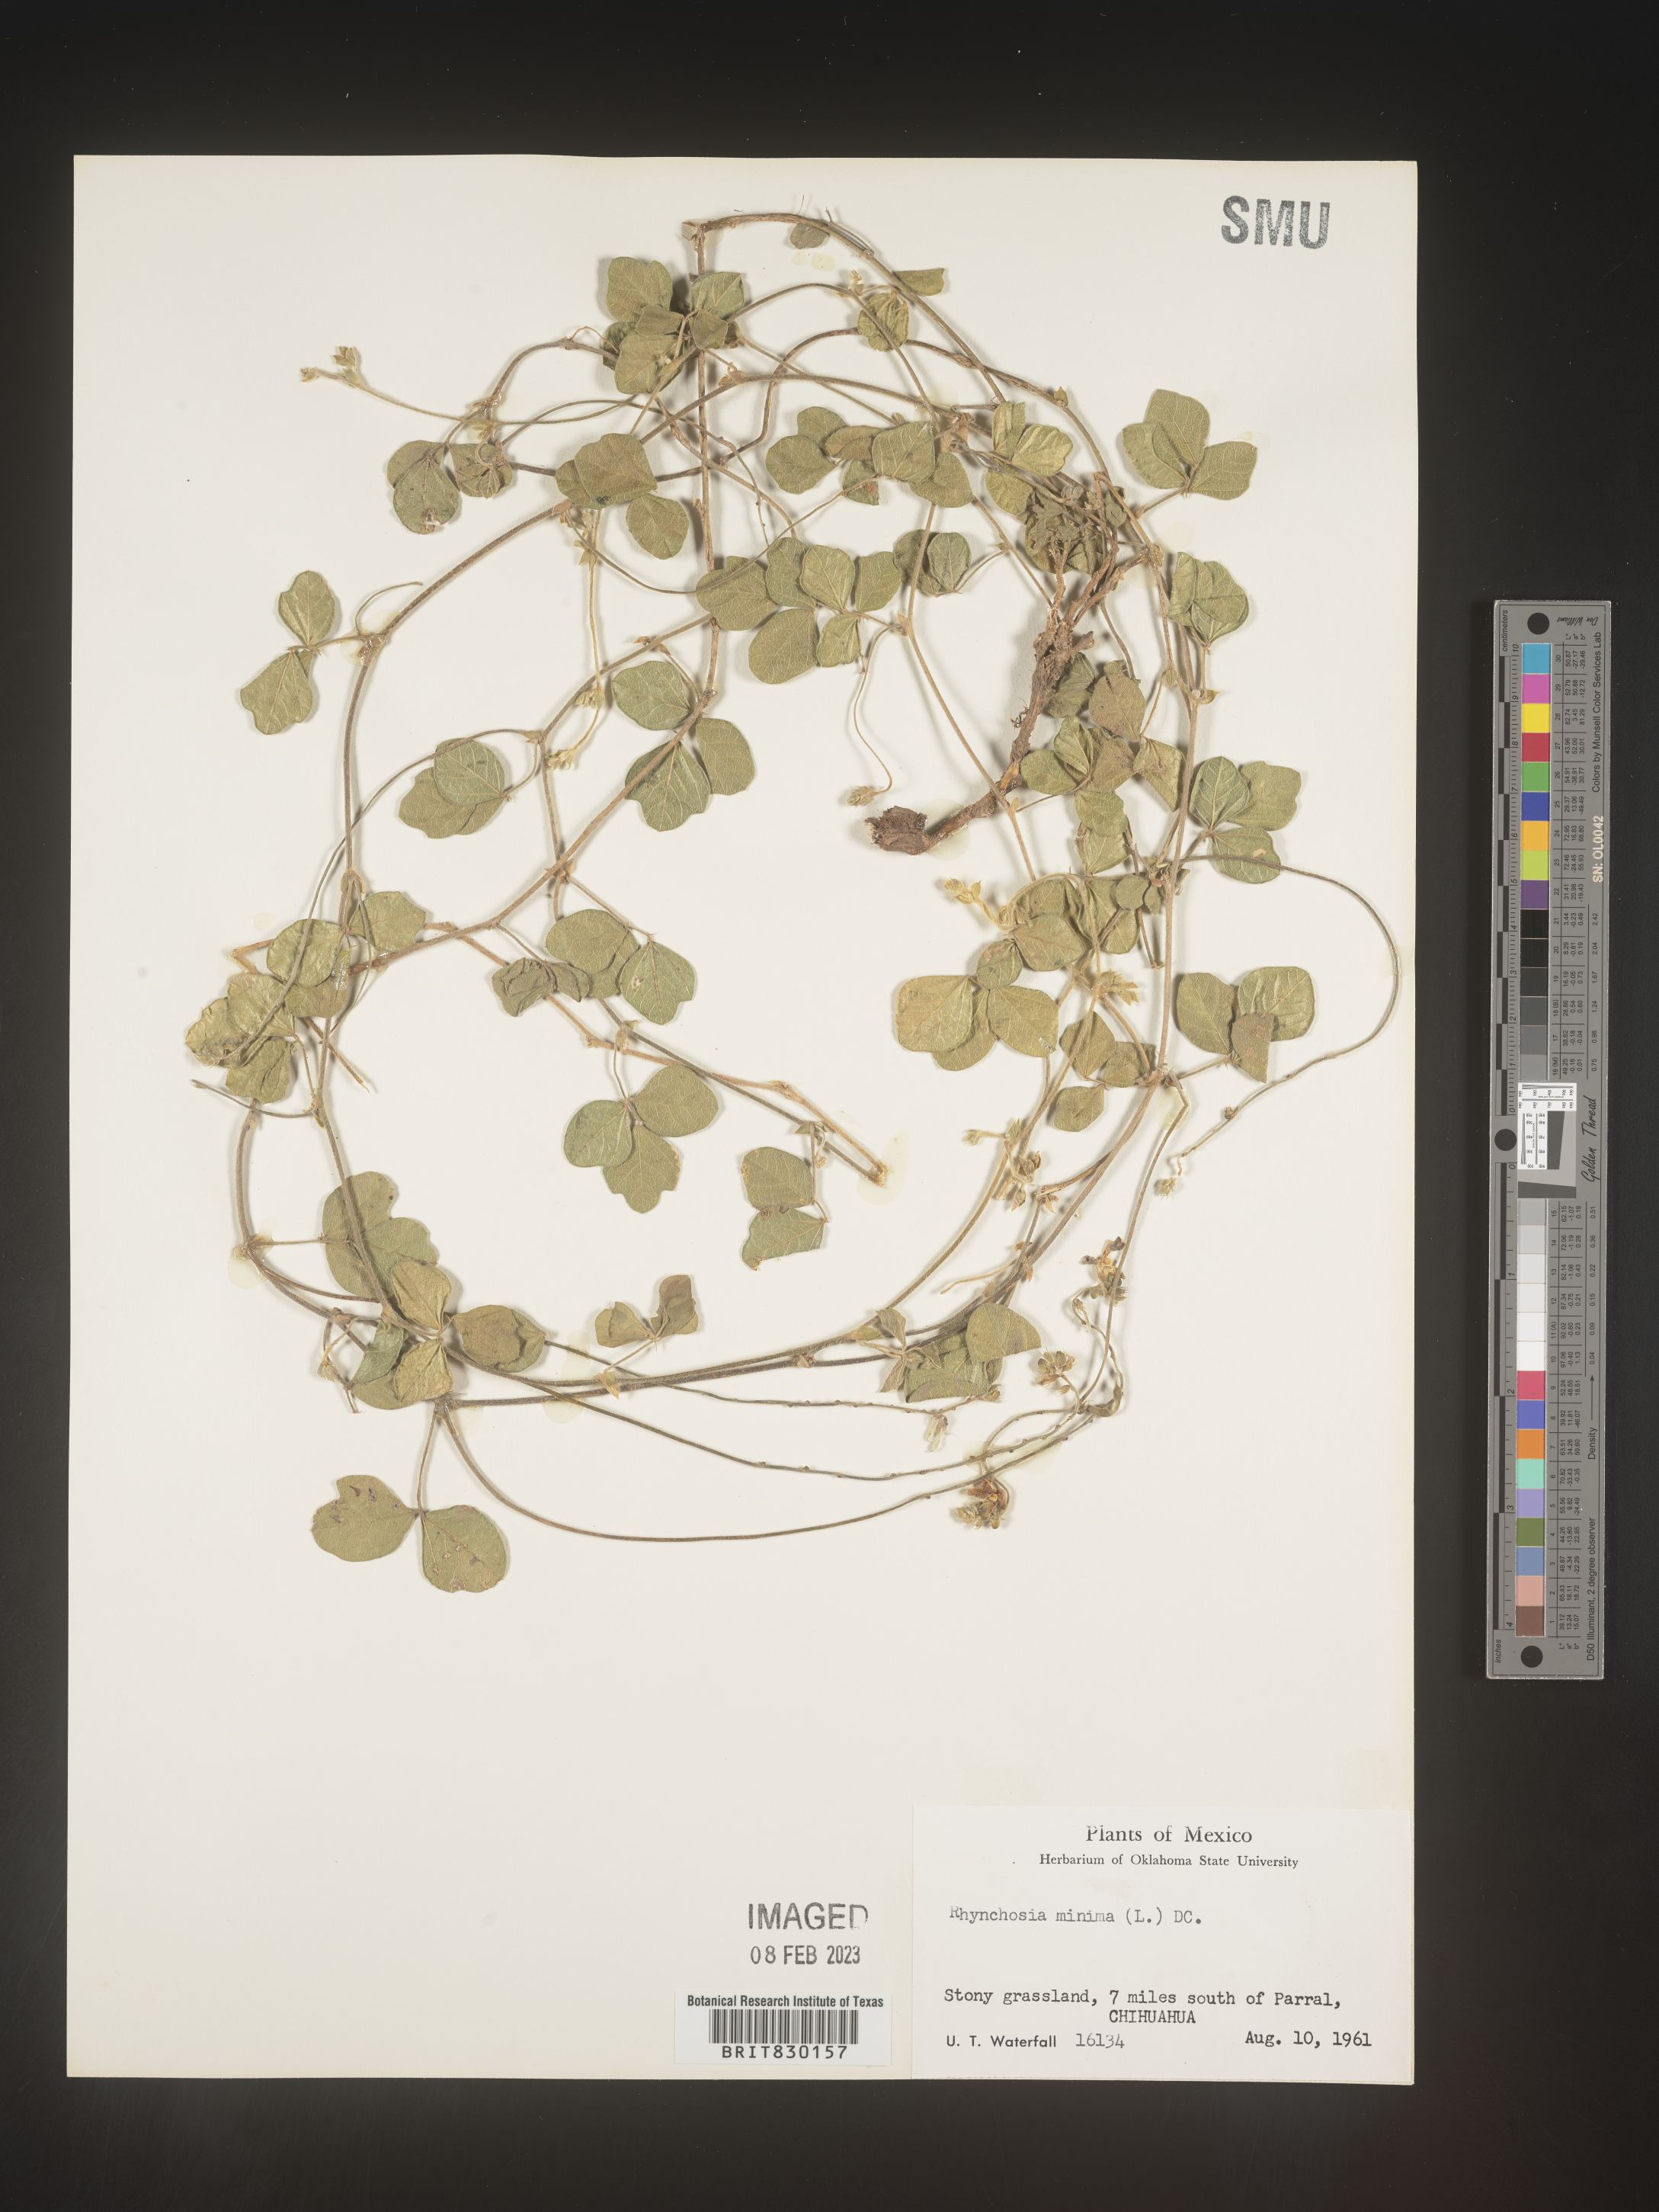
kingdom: Plantae
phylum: Tracheophyta
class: Magnoliopsida
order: Fabales
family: Fabaceae
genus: Rhynchosia
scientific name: Rhynchosia
